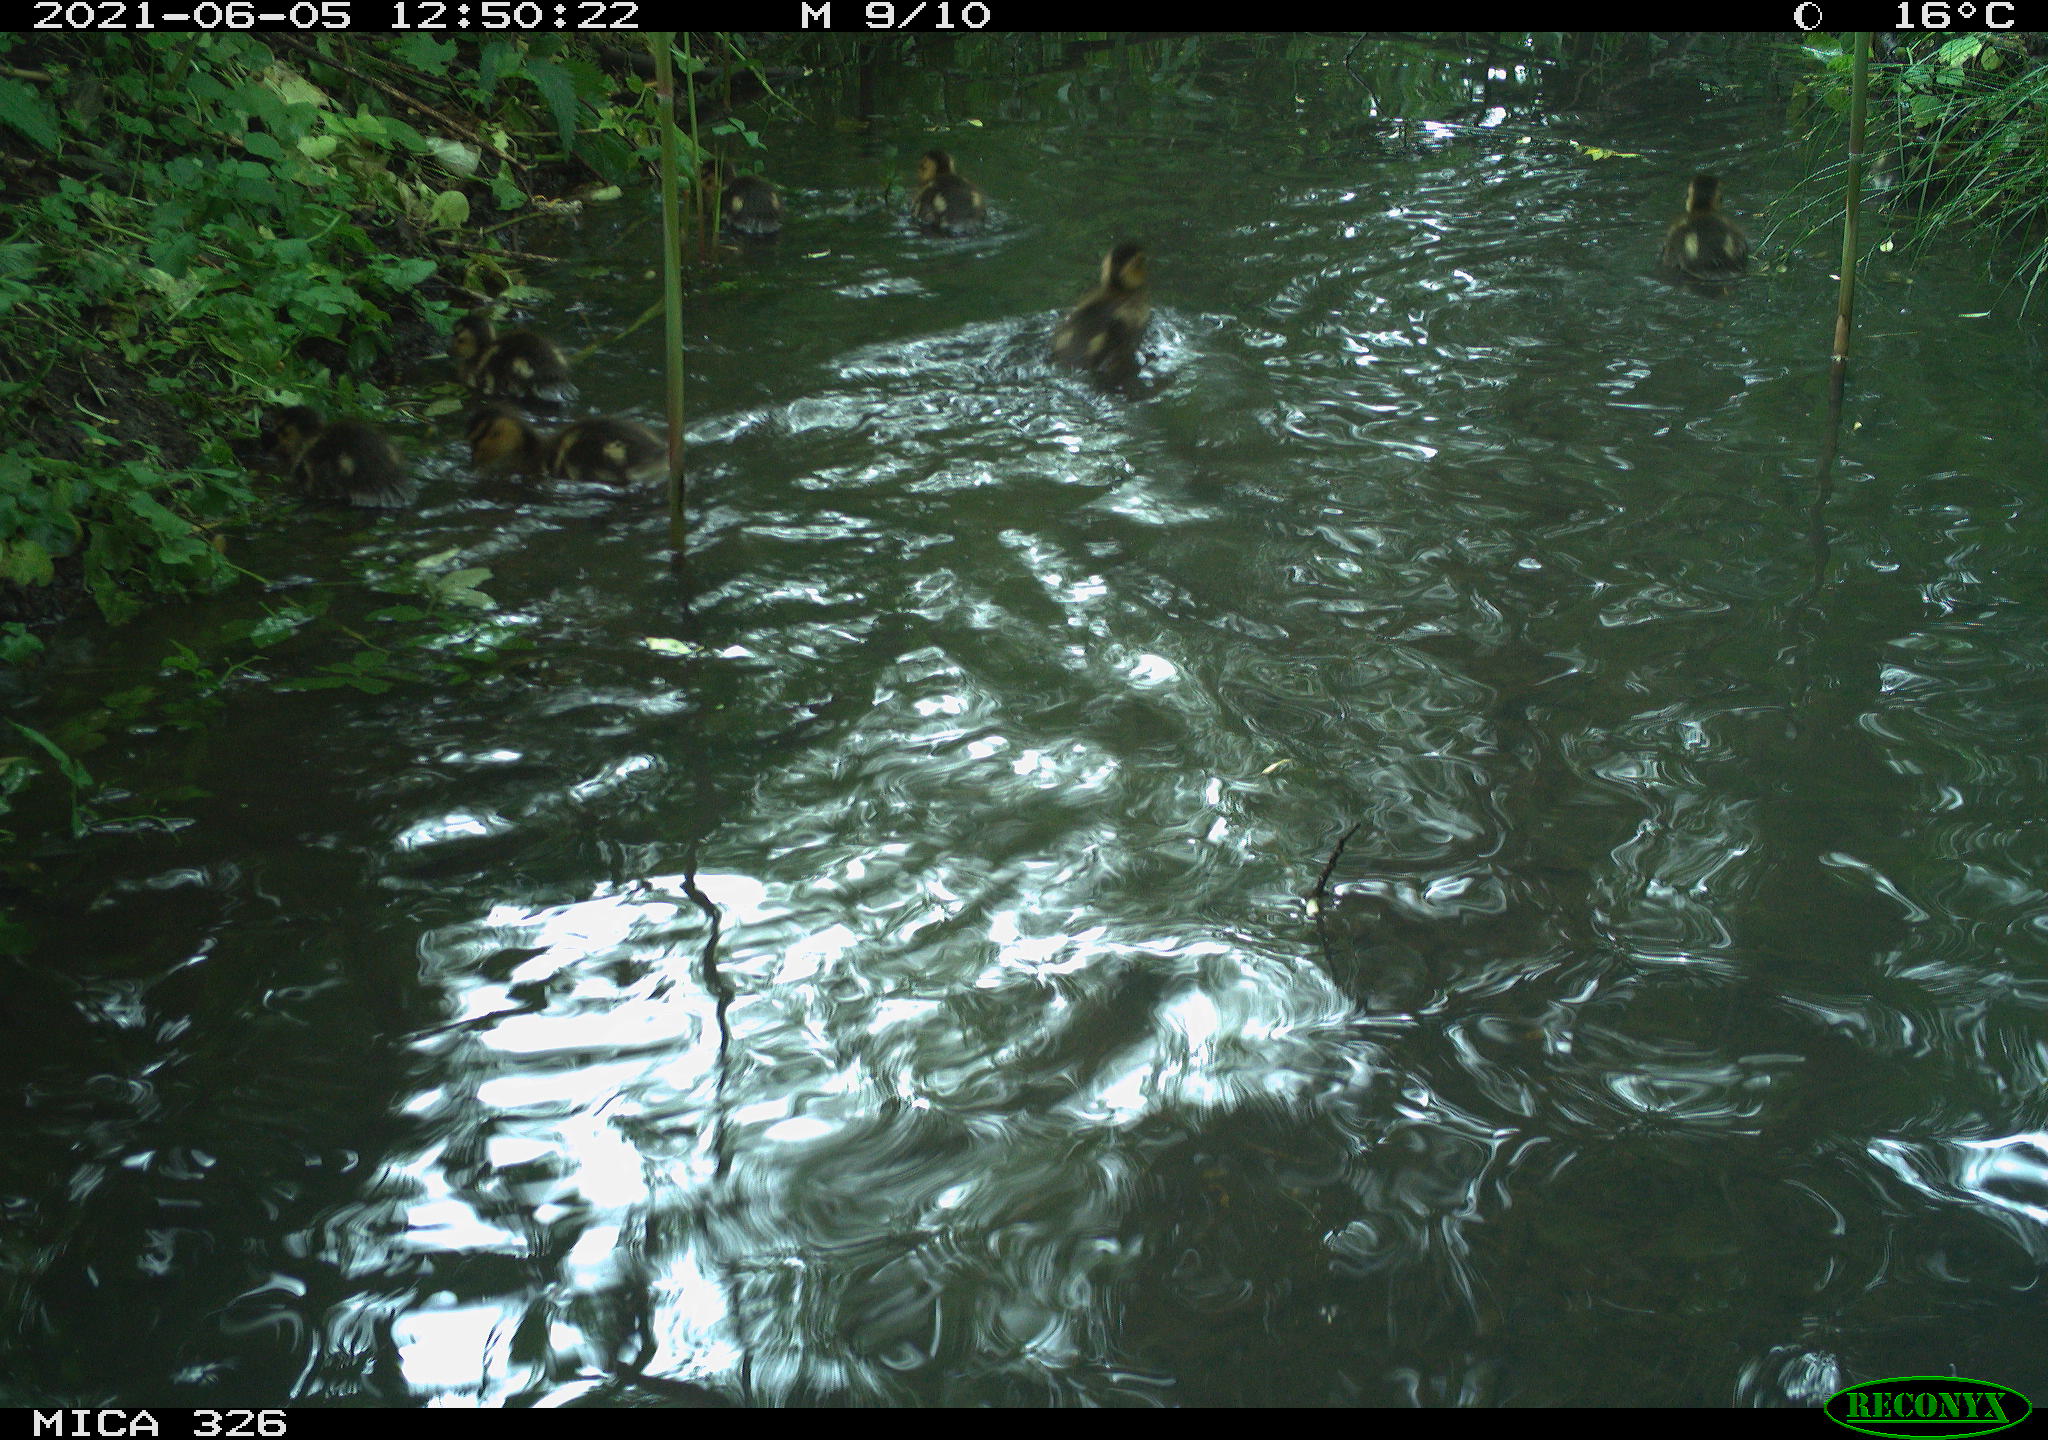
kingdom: Animalia
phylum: Chordata
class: Aves
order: Anseriformes
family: Anatidae
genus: Anas
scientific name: Anas platyrhynchos
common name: Mallard
